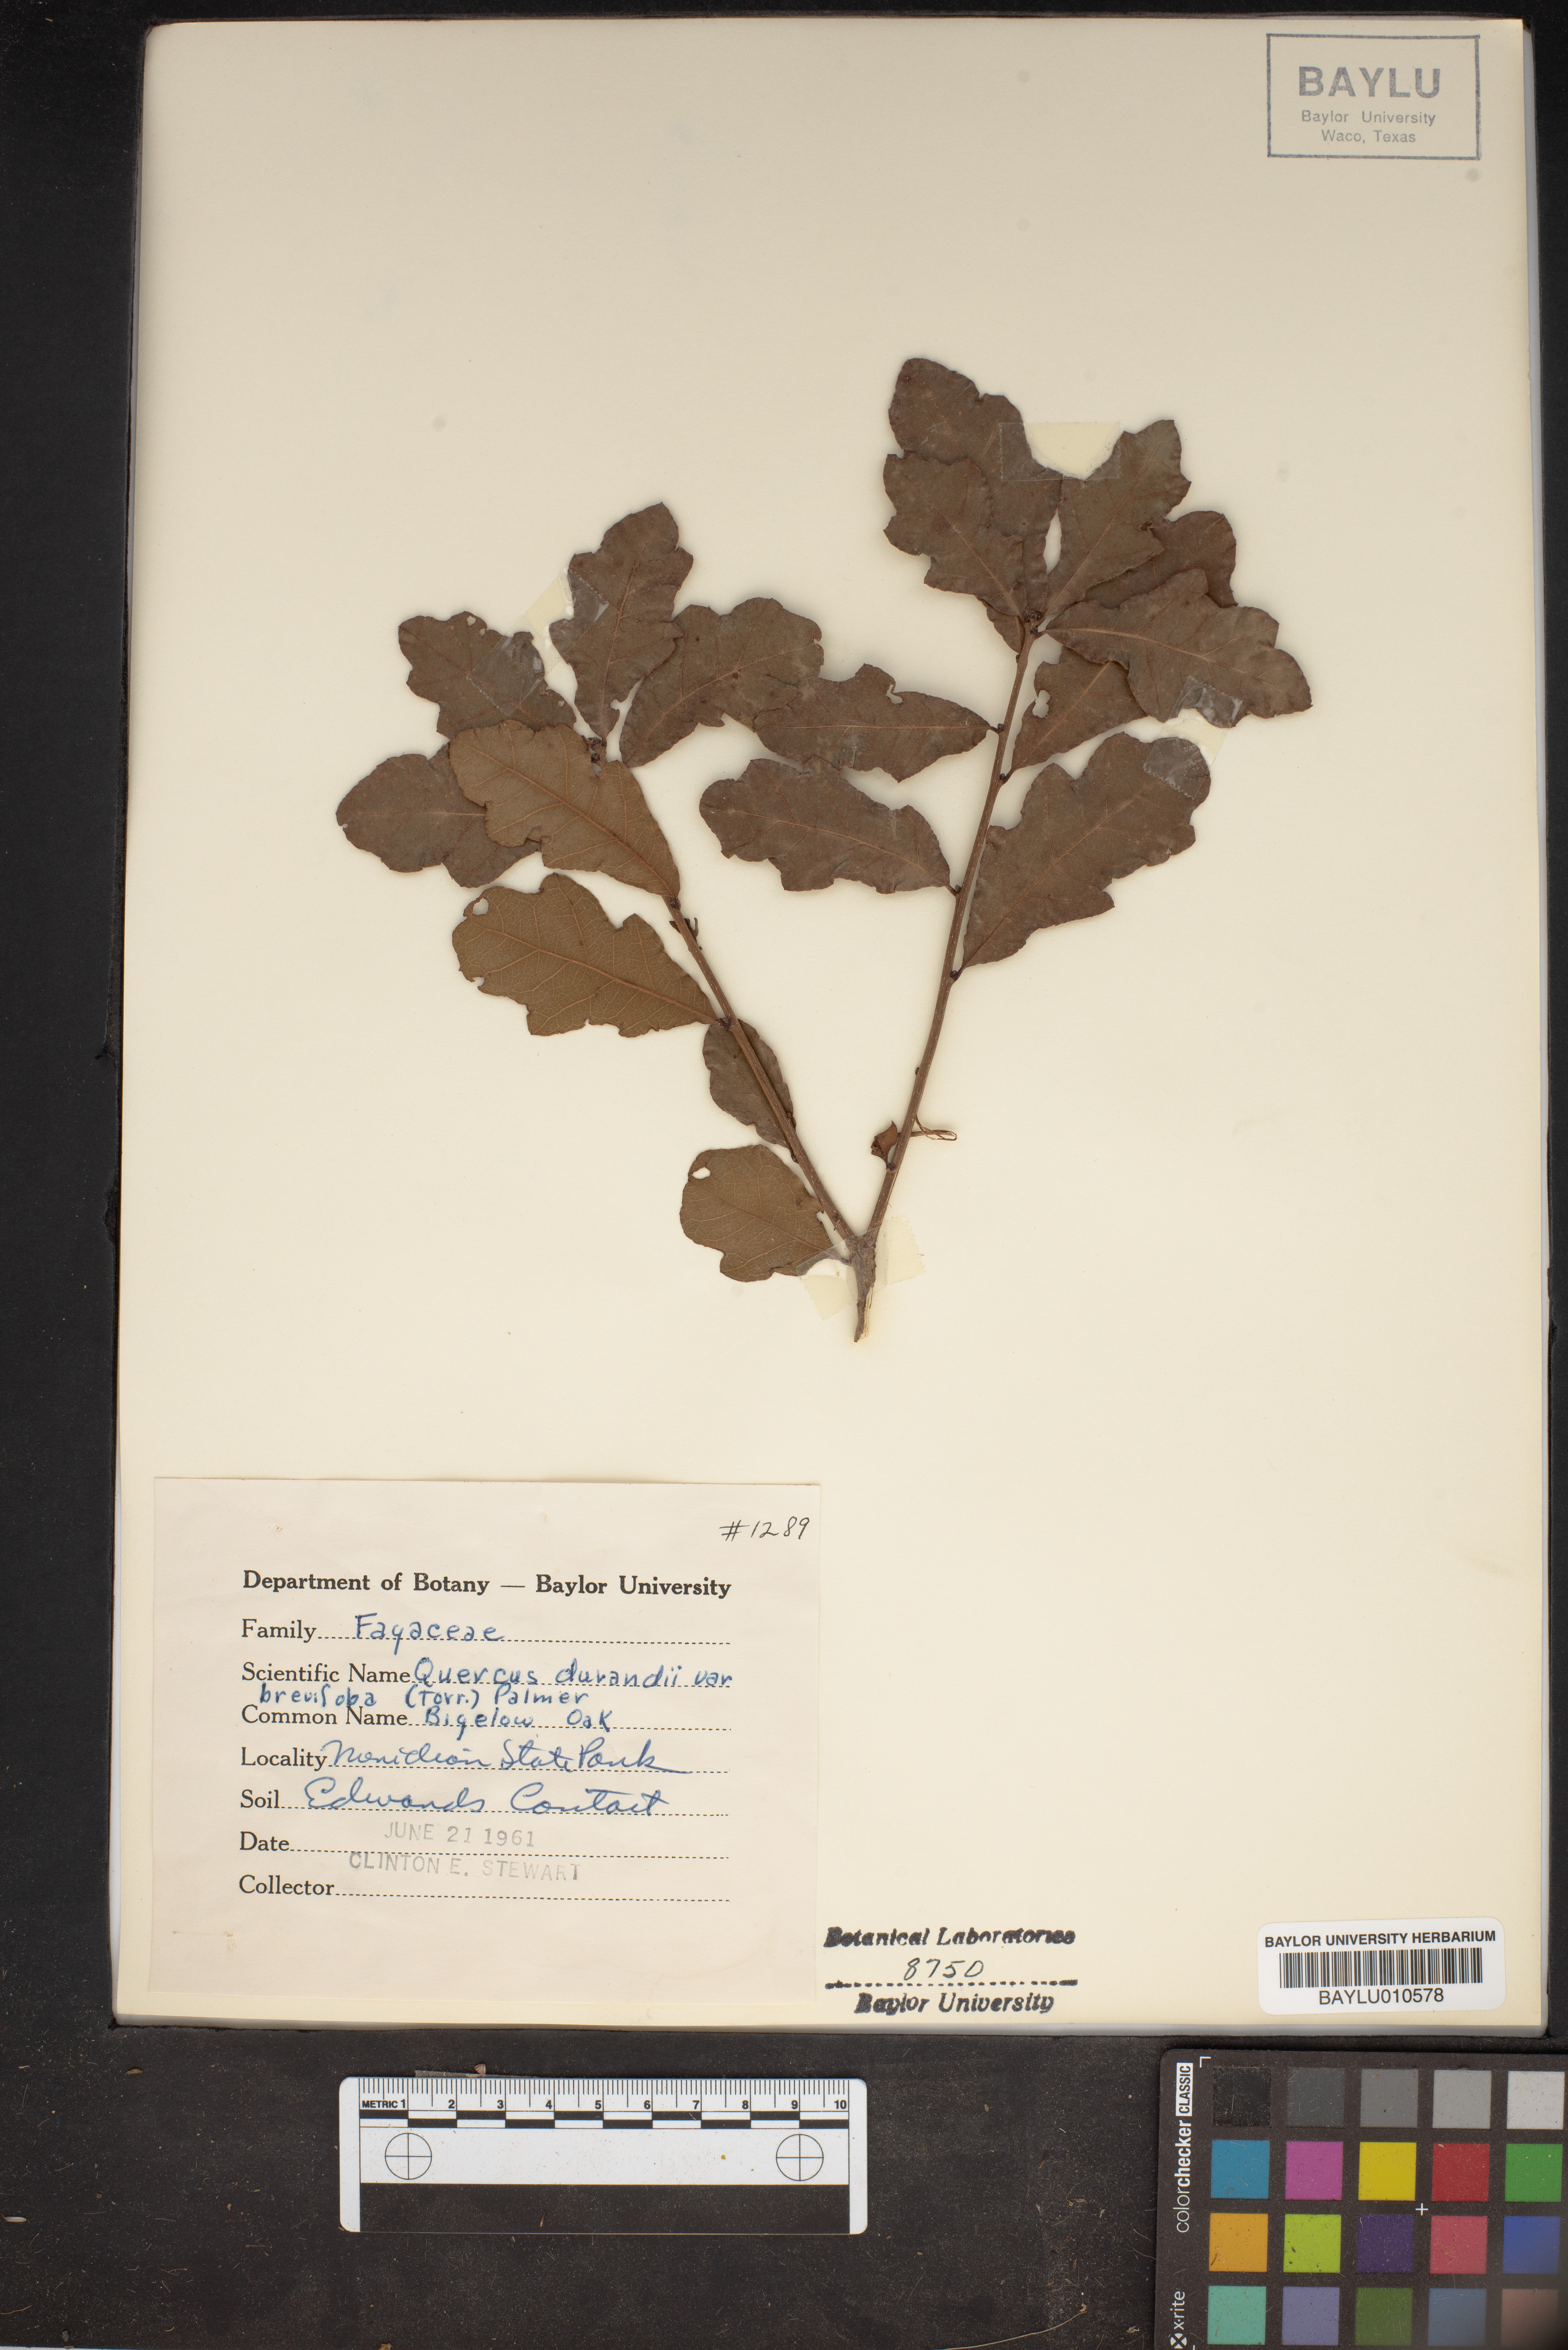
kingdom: Plantae
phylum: Tracheophyta
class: Magnoliopsida
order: Fagales
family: Fagaceae
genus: Quercus
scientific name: Quercus sinuata
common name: Durand oak
